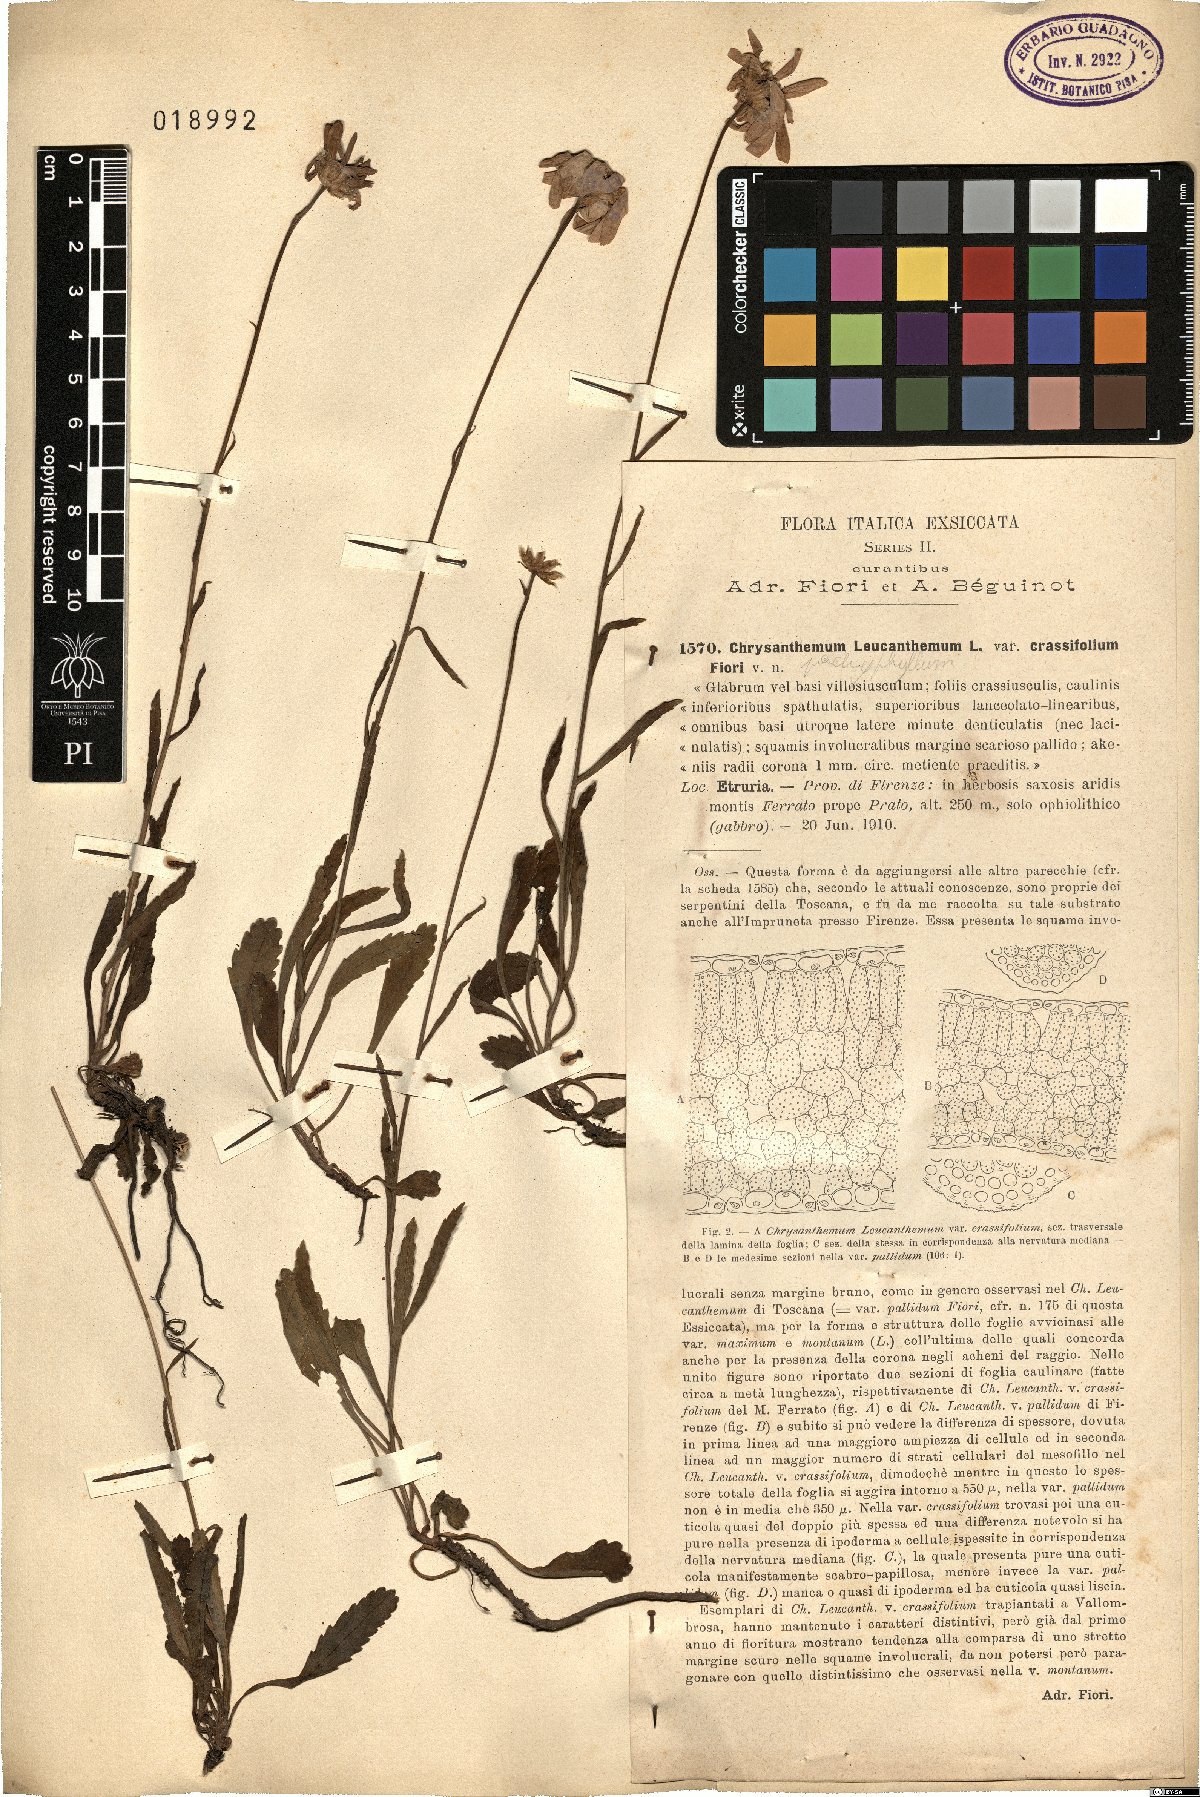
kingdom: Plantae
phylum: Tracheophyta
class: Magnoliopsida
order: Asterales
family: Asteraceae
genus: Leucanthemum
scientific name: Leucanthemum pachyphyllum
